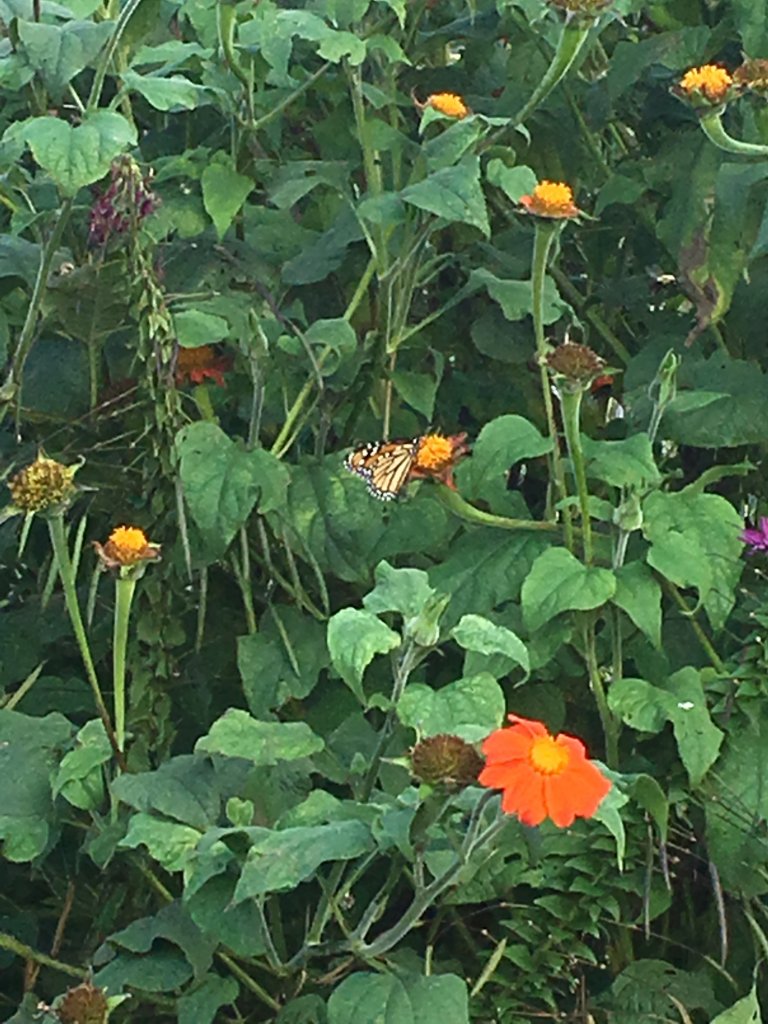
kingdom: Animalia
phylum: Arthropoda
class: Insecta
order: Lepidoptera
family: Nymphalidae
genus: Danaus
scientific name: Danaus plexippus
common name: Monarch
